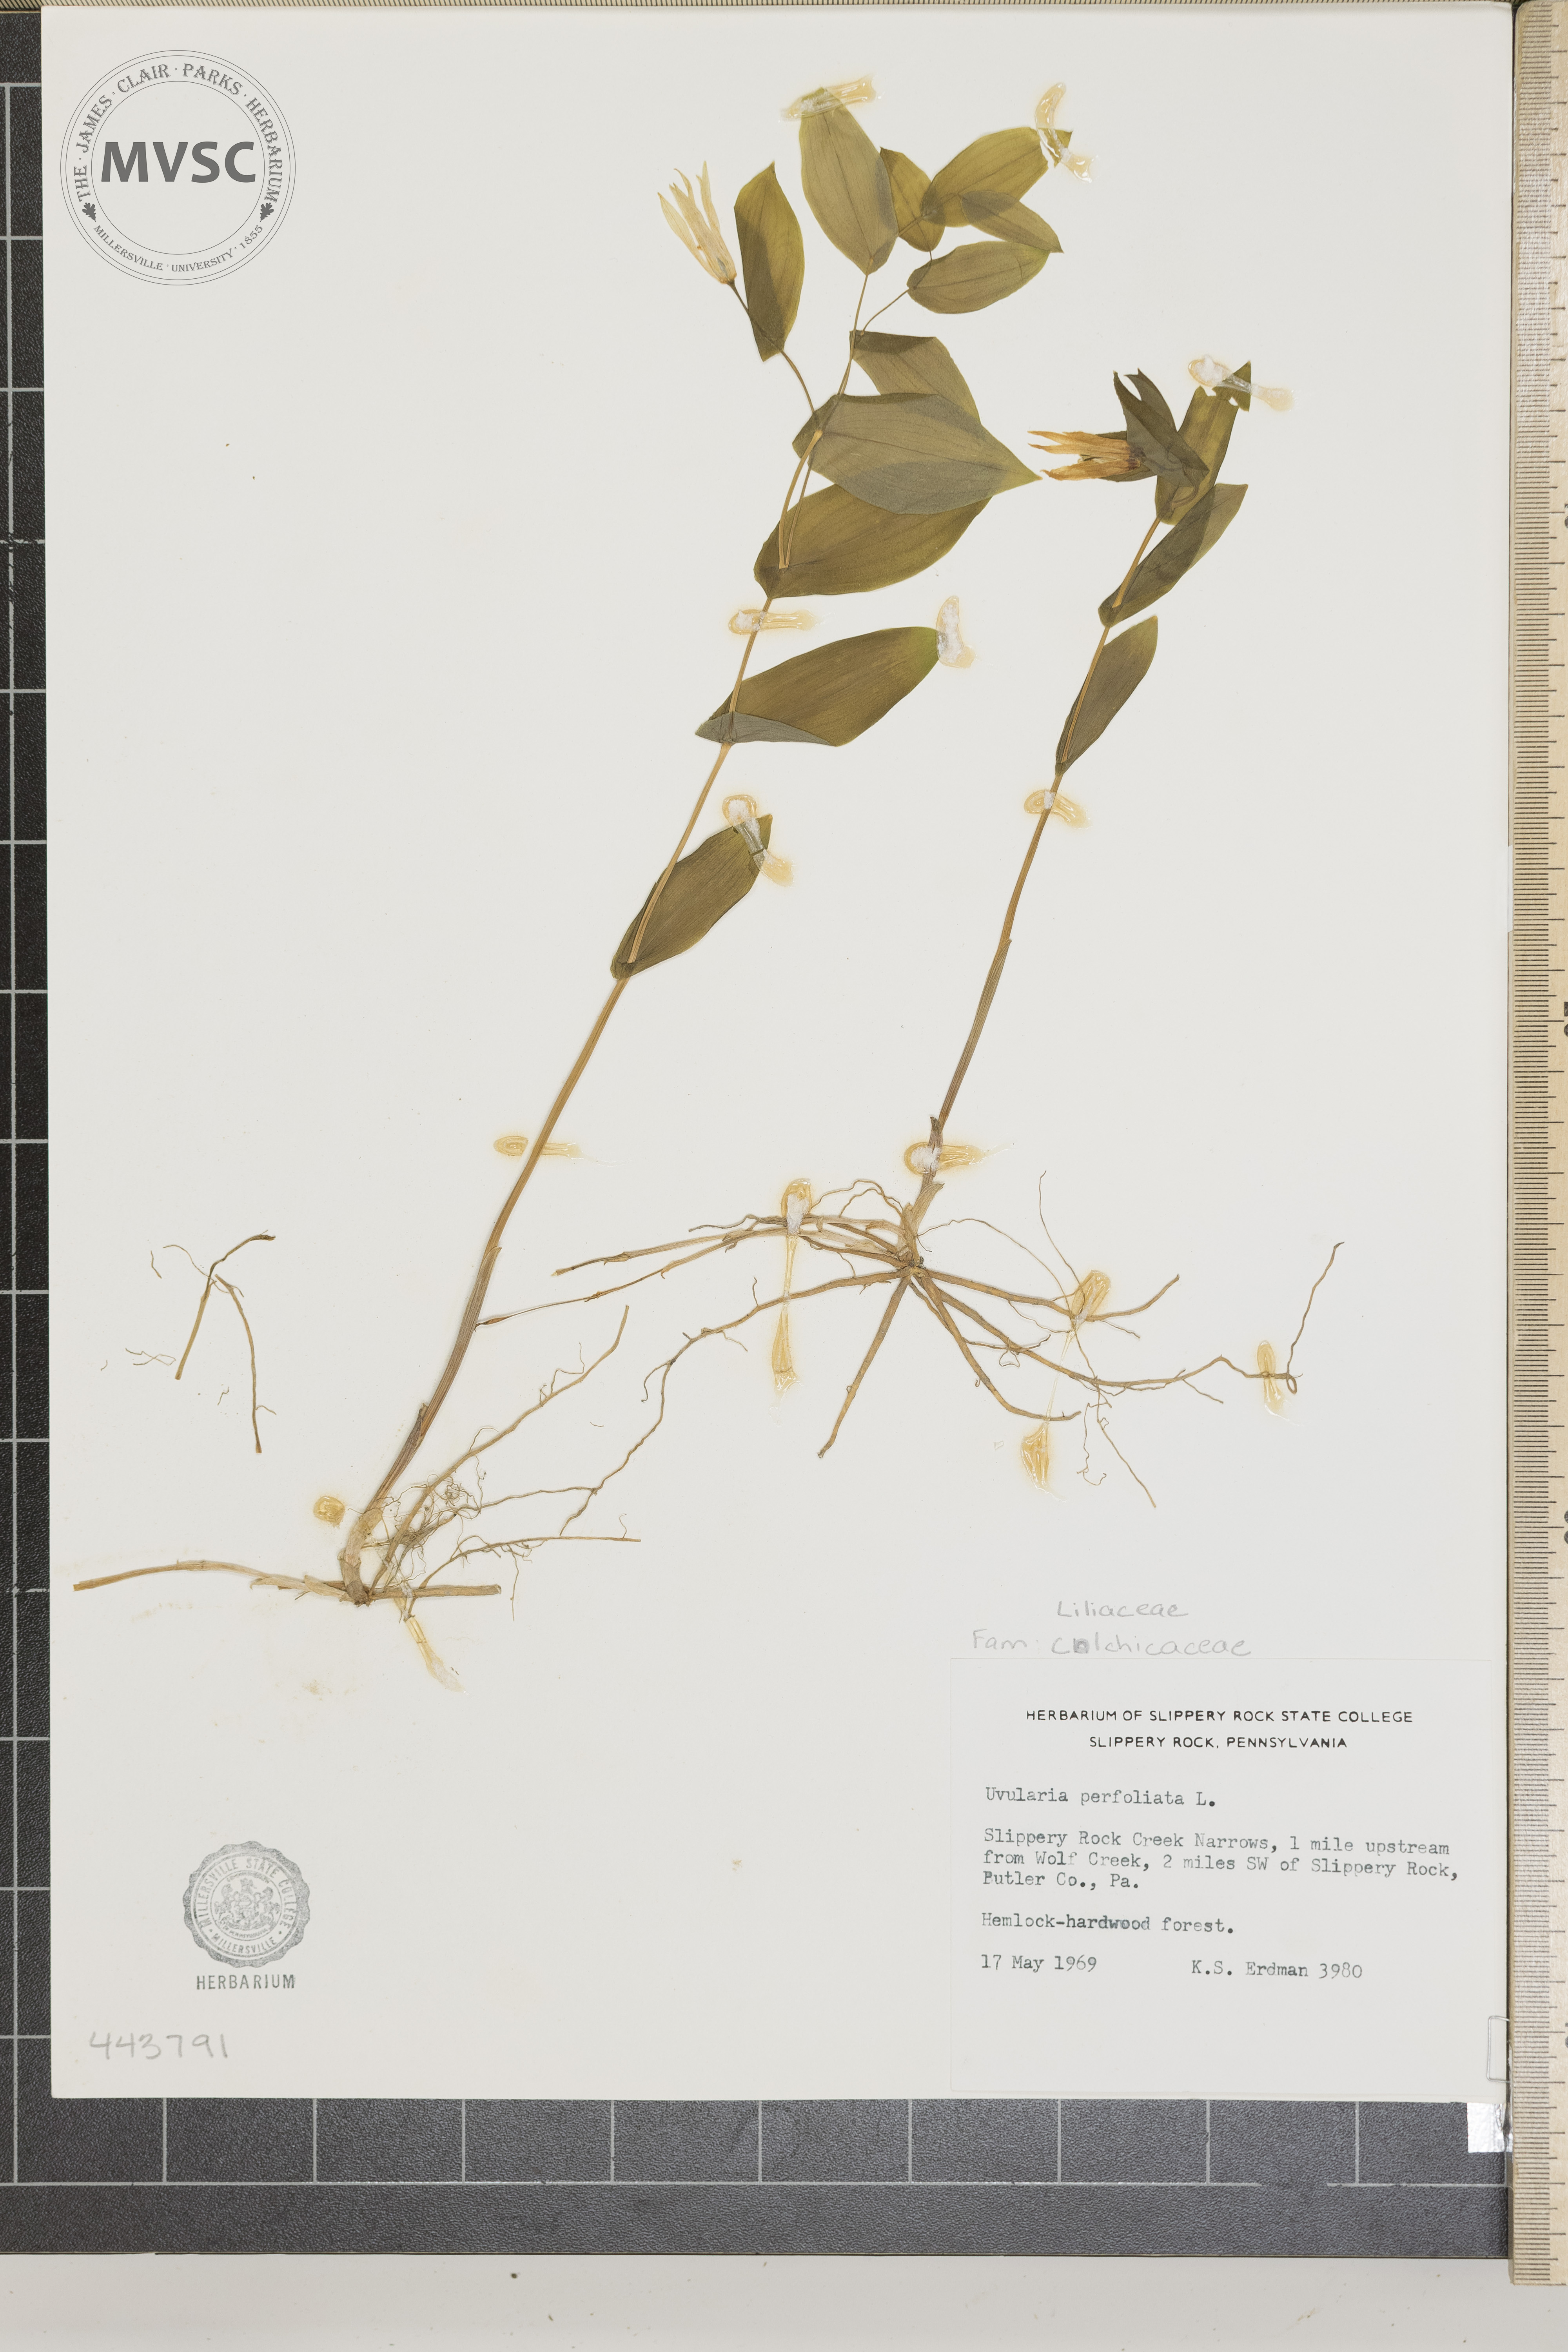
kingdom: Plantae
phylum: Tracheophyta
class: Liliopsida
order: Liliales
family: Colchicaceae
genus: Uvularia
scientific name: Uvularia perfoliata
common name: Perfoliate bellwort
